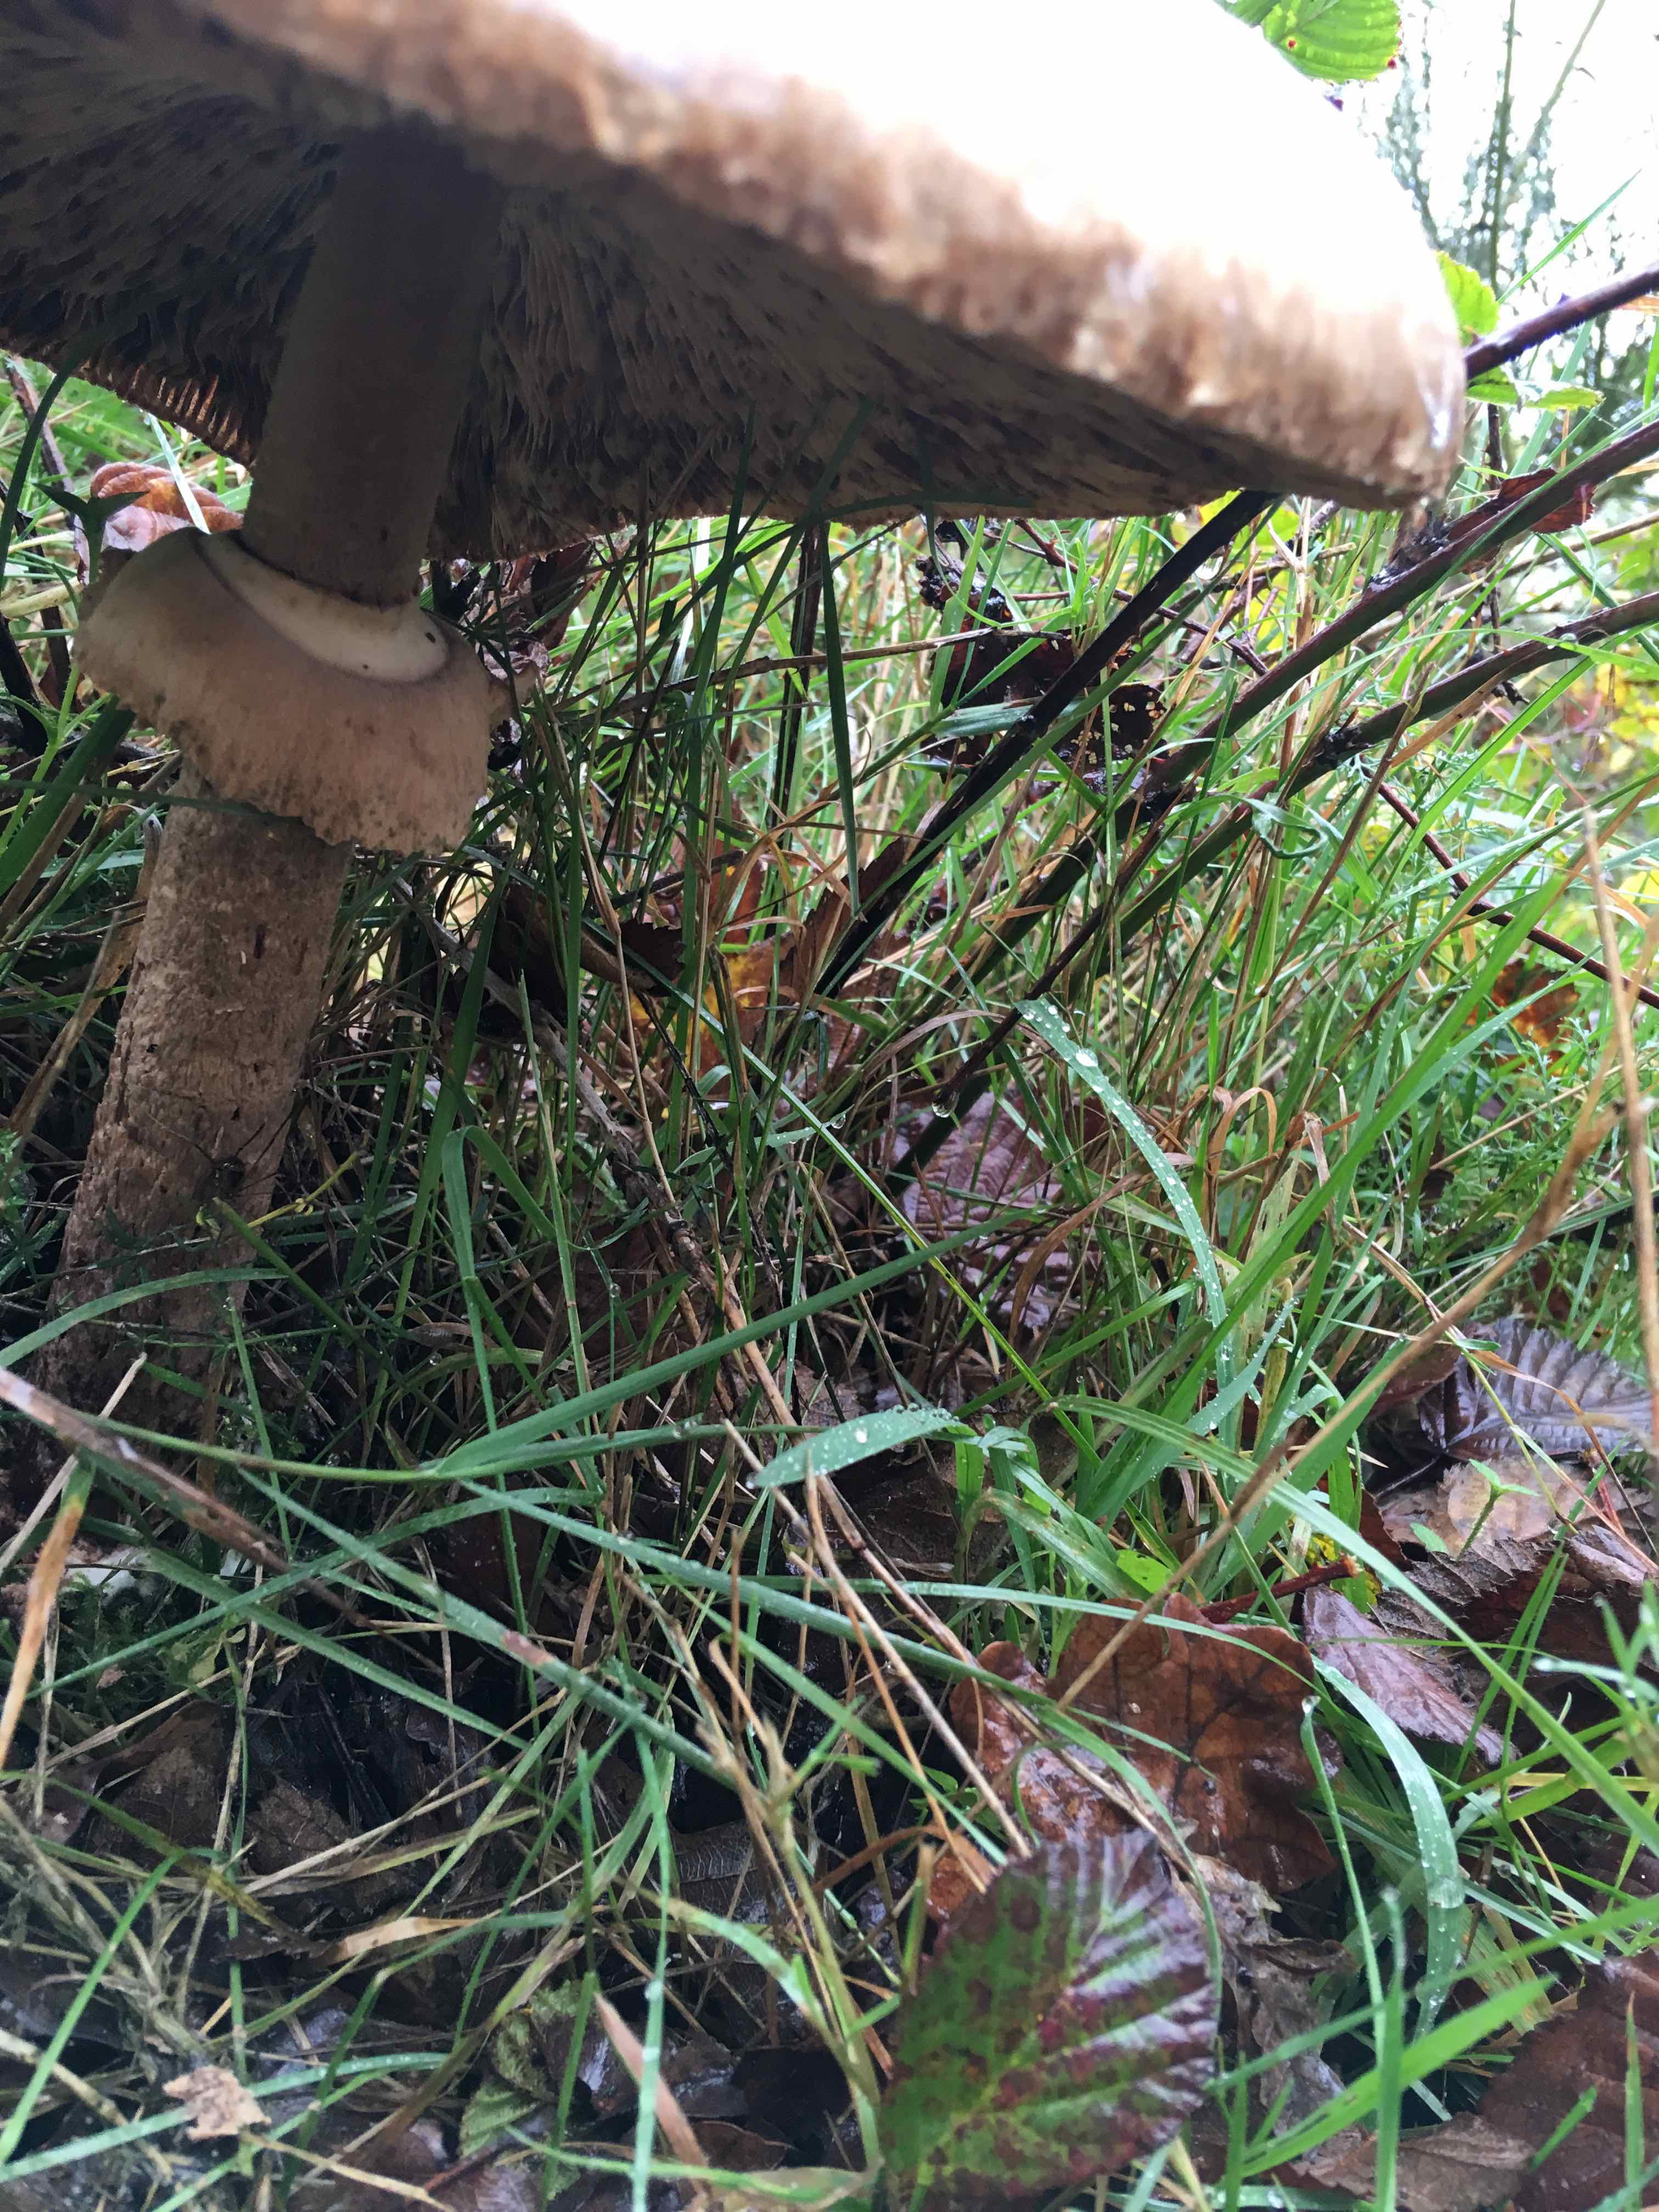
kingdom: Fungi
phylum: Basidiomycota
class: Agaricomycetes
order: Agaricales
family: Agaricaceae
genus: Macrolepiota
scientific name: Macrolepiota procera
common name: stor kæmpeparasolhat
